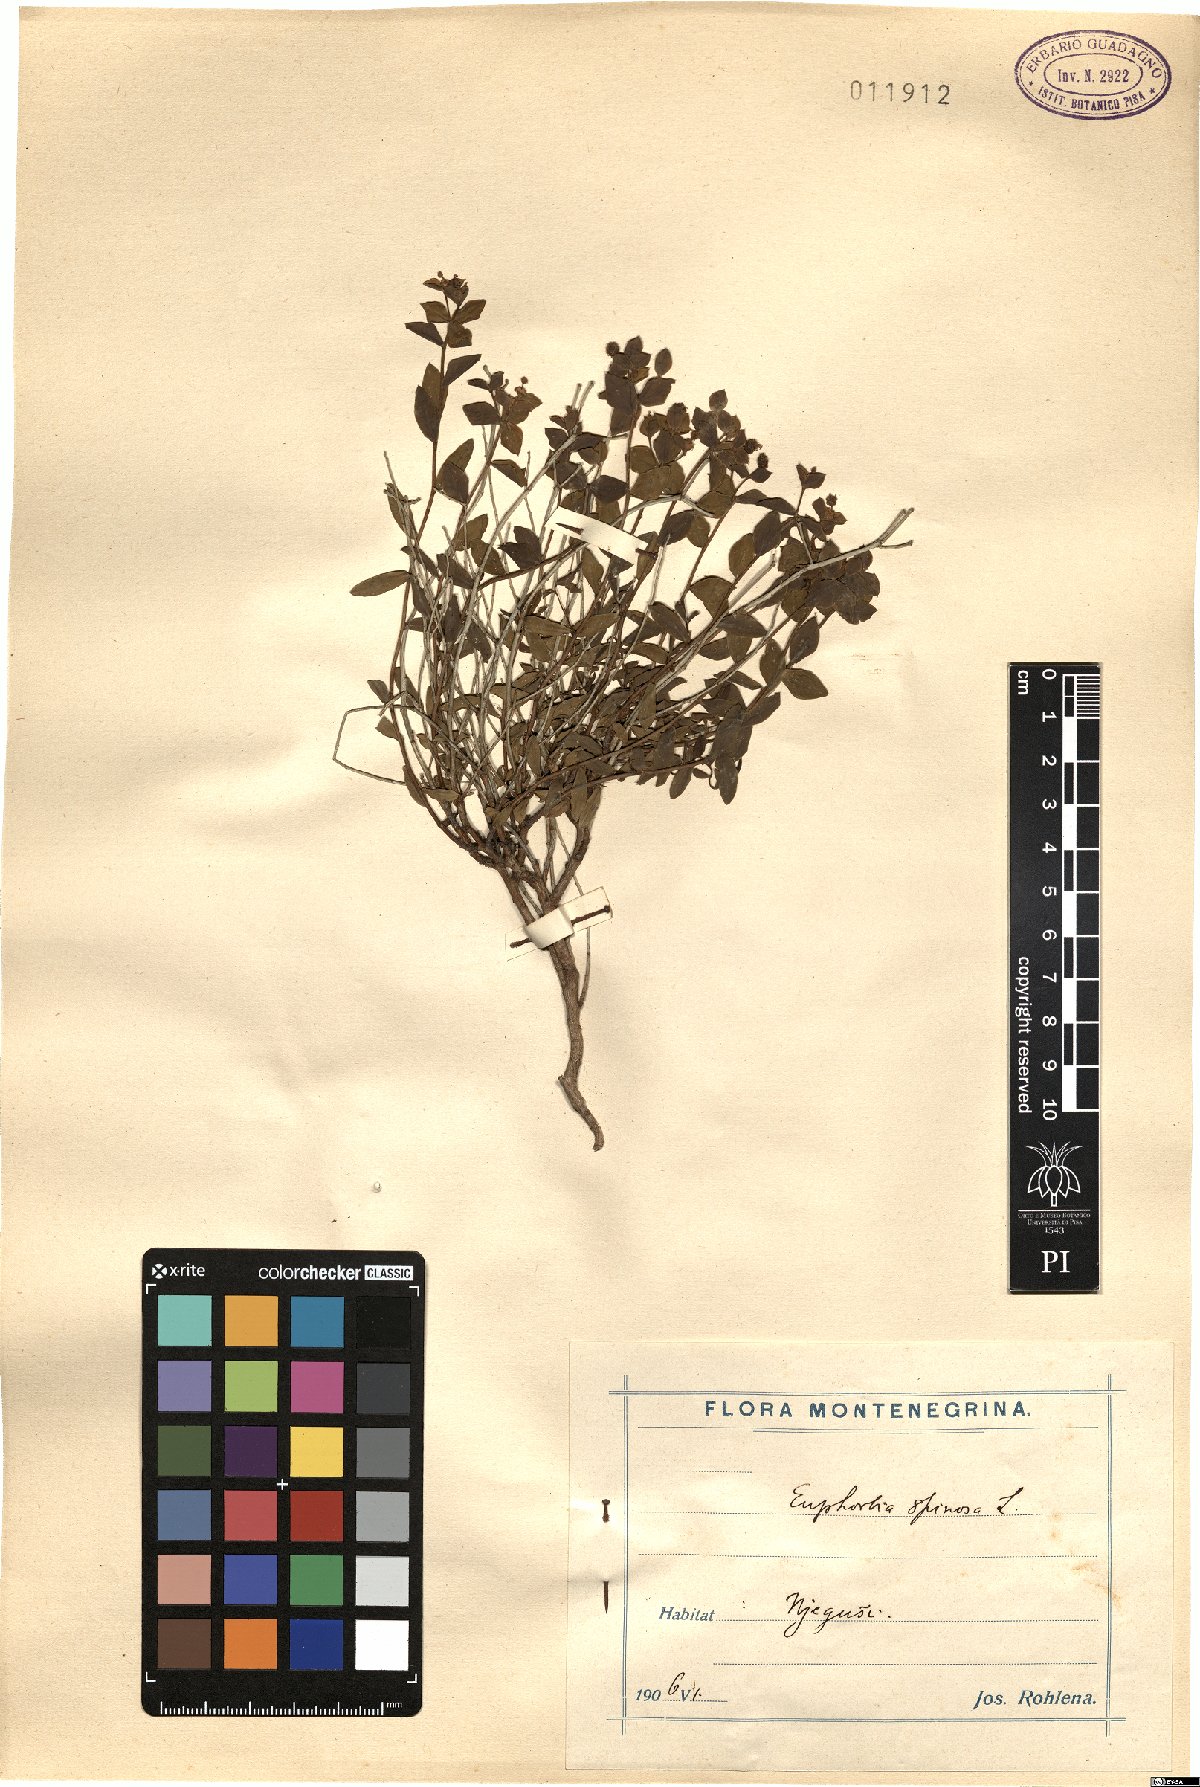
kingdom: Plantae
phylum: Tracheophyta
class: Magnoliopsida
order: Malpighiales
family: Euphorbiaceae
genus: Euphorbia
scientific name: Euphorbia spinosa
